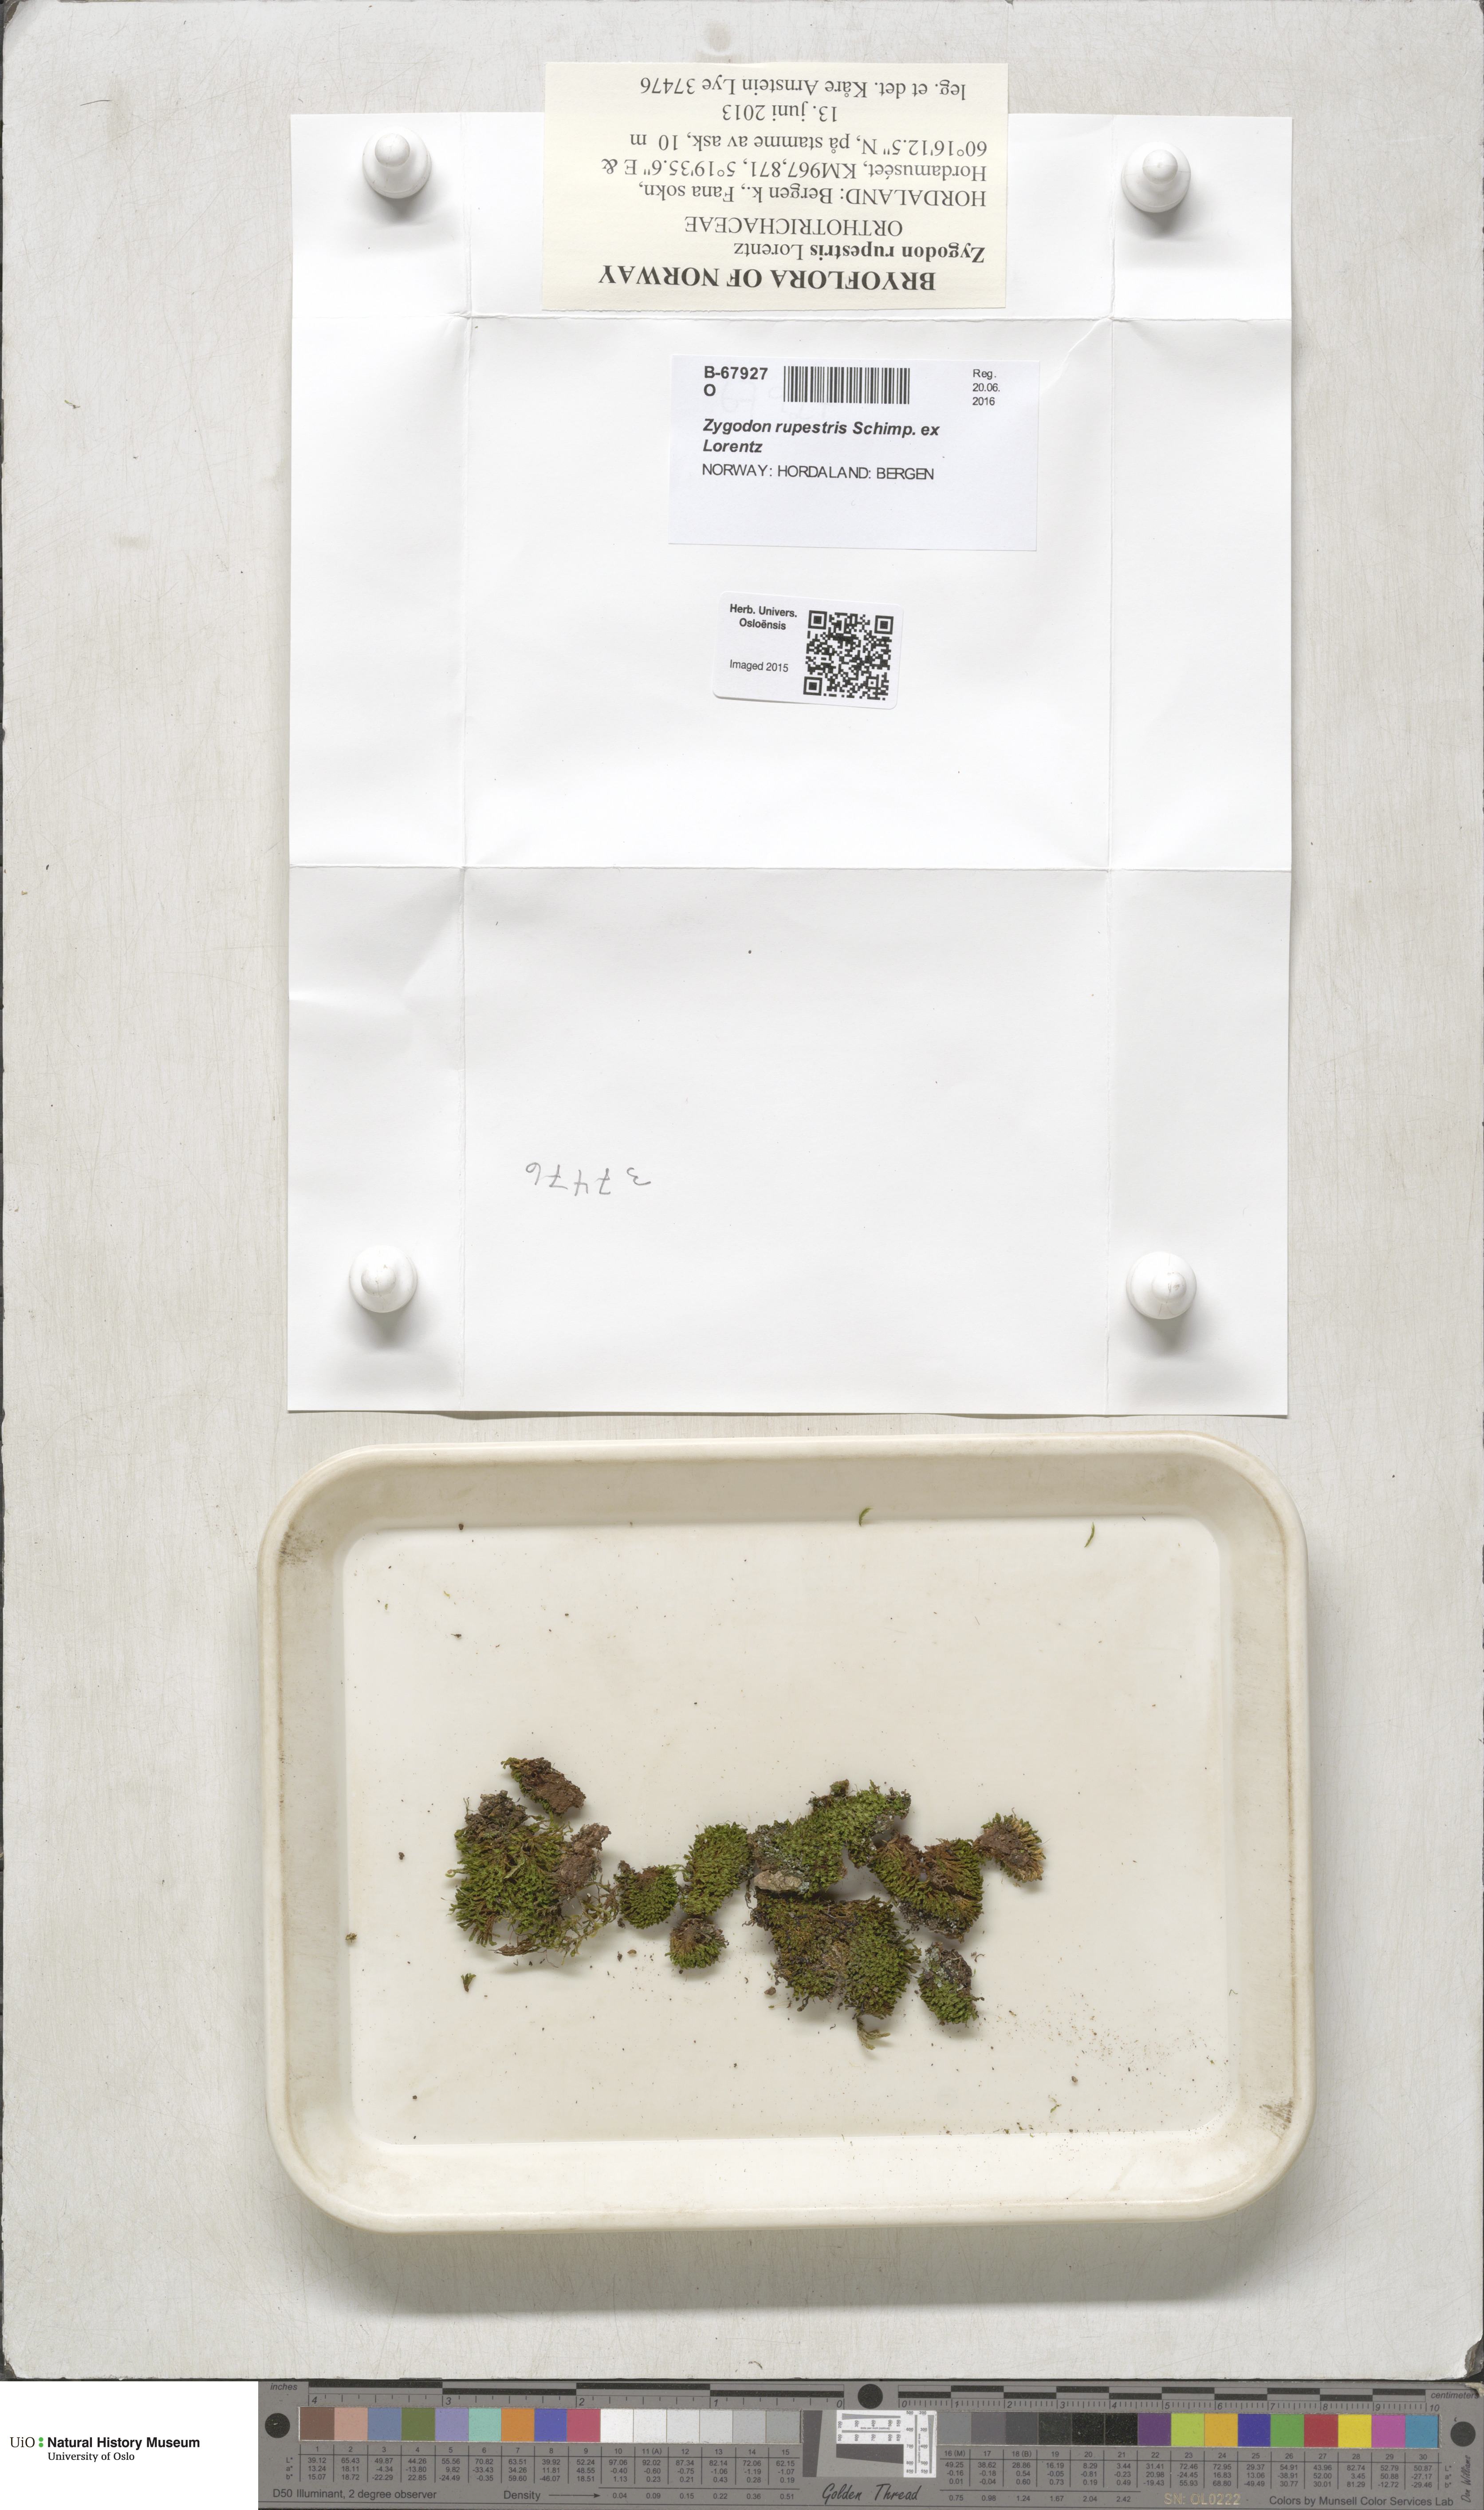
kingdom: Plantae
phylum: Bryophyta
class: Bryopsida
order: Orthotrichales
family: Orthotrichaceae
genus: Zygodon
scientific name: Zygodon rupestris
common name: Park yoke moss
